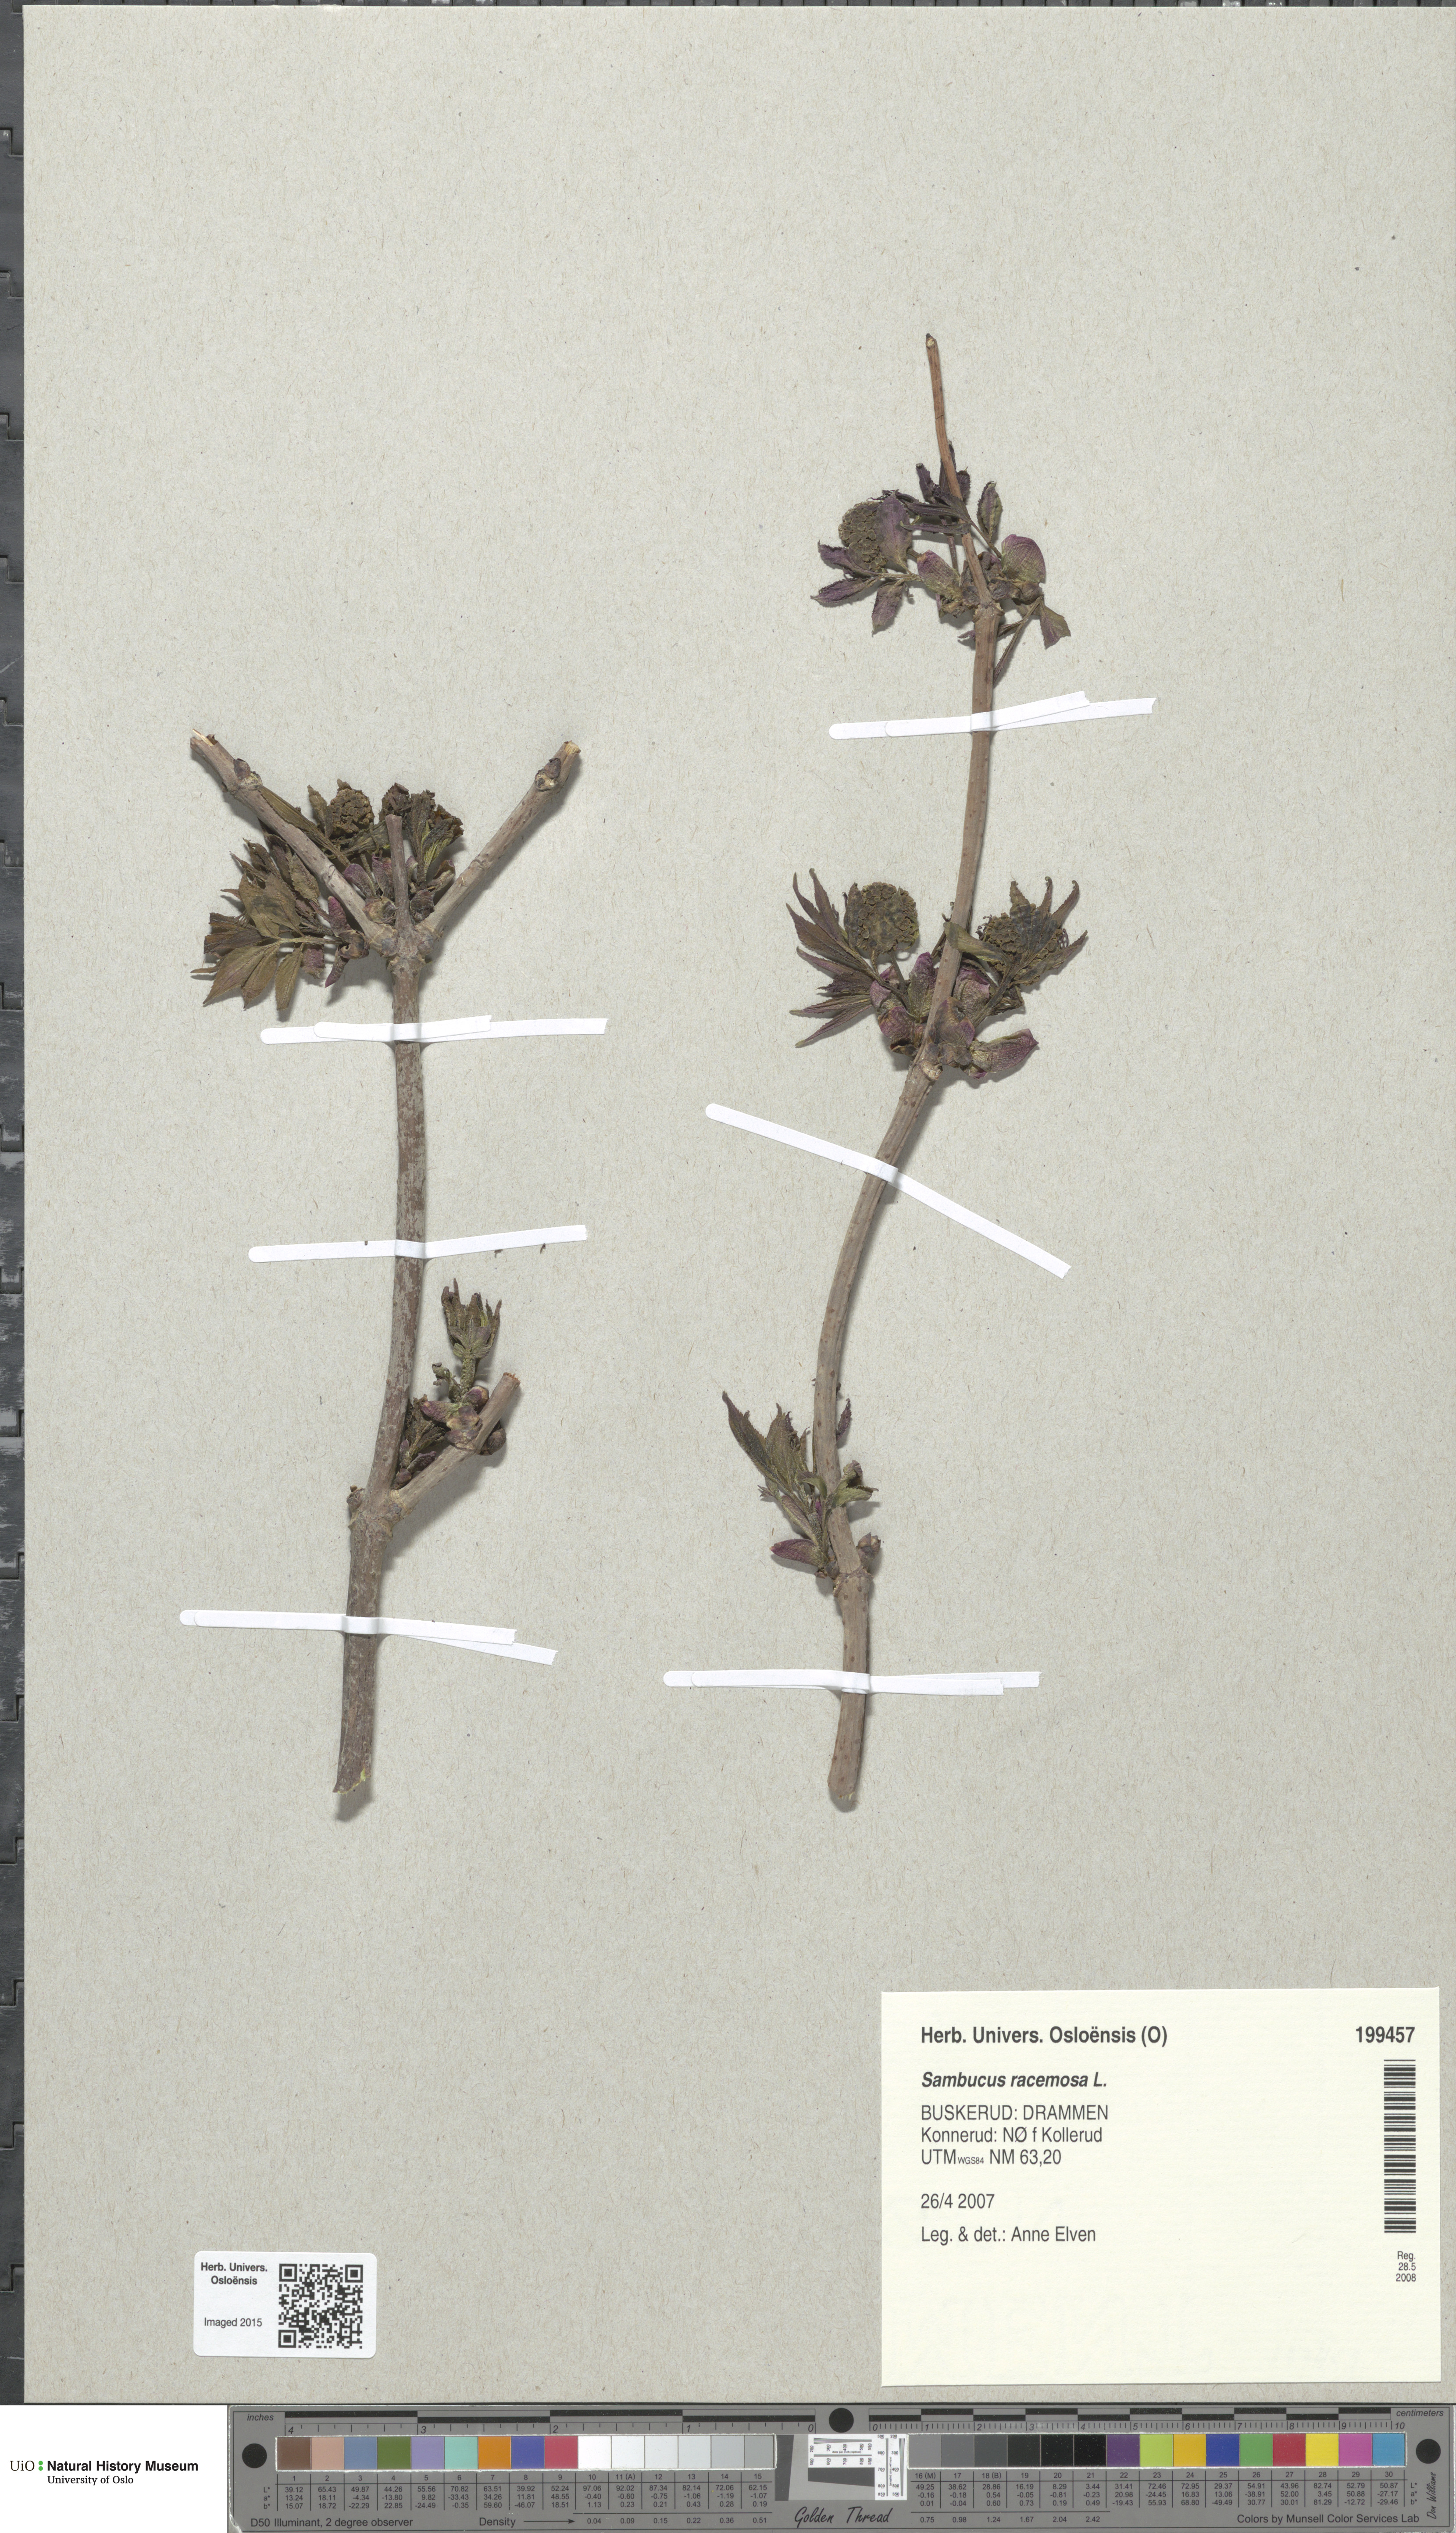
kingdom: Plantae
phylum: Tracheophyta
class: Magnoliopsida
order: Dipsacales
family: Viburnaceae
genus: Sambucus
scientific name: Sambucus racemosa
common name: Red-berried elder
